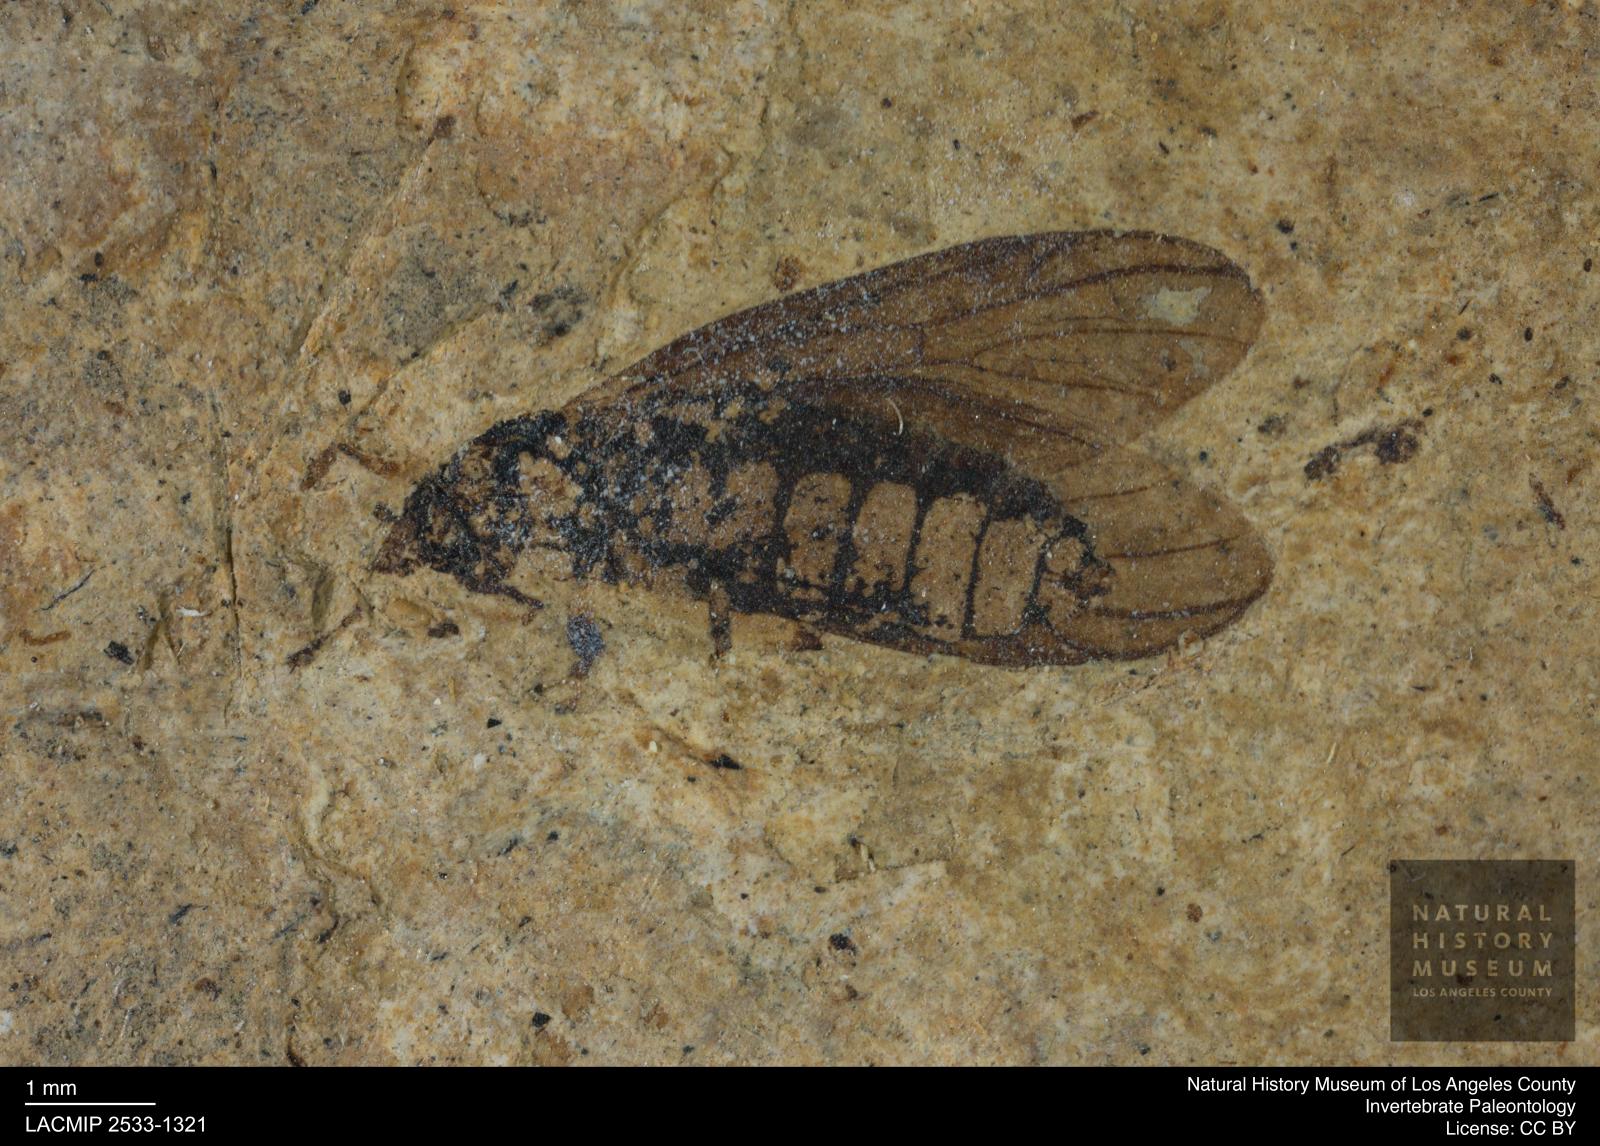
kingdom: Animalia
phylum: Arthropoda
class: Insecta
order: Diptera
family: Bibionidae
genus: Plecia
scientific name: Plecia stygia
